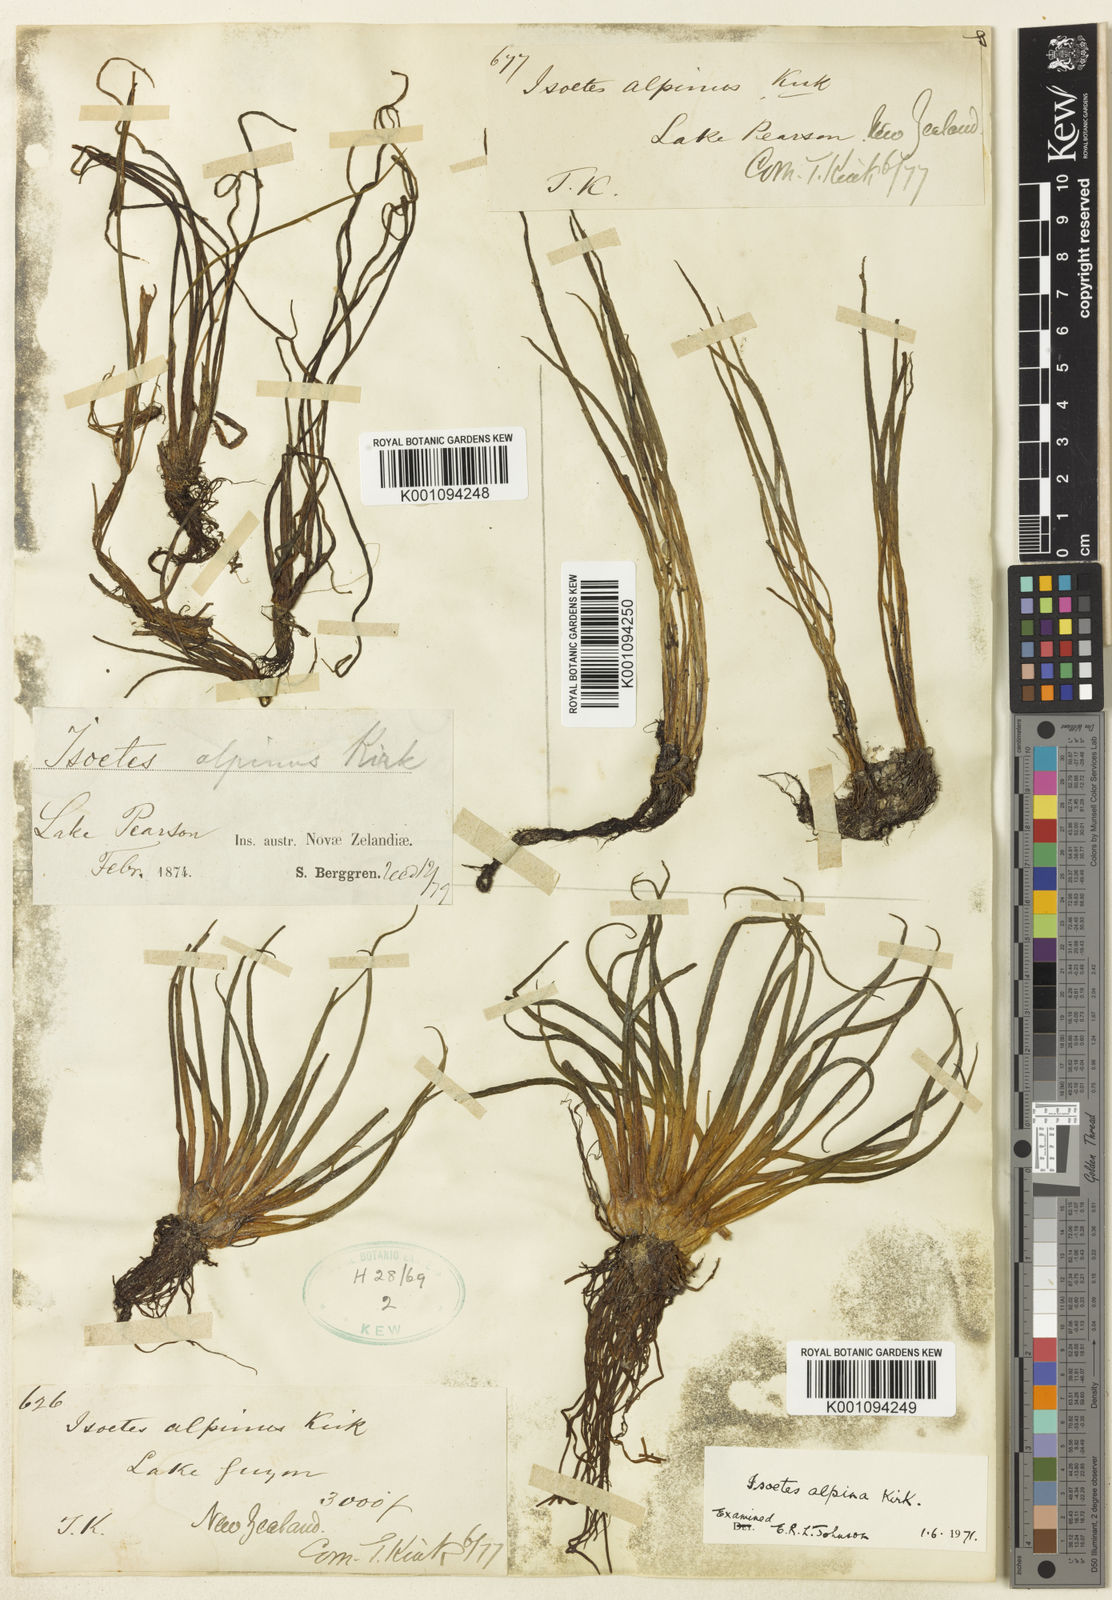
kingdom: Plantae
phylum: Tracheophyta
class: Lycopodiopsida
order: Isoetales
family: Isoetaceae
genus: Isoetes
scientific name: Isoetes alpina
